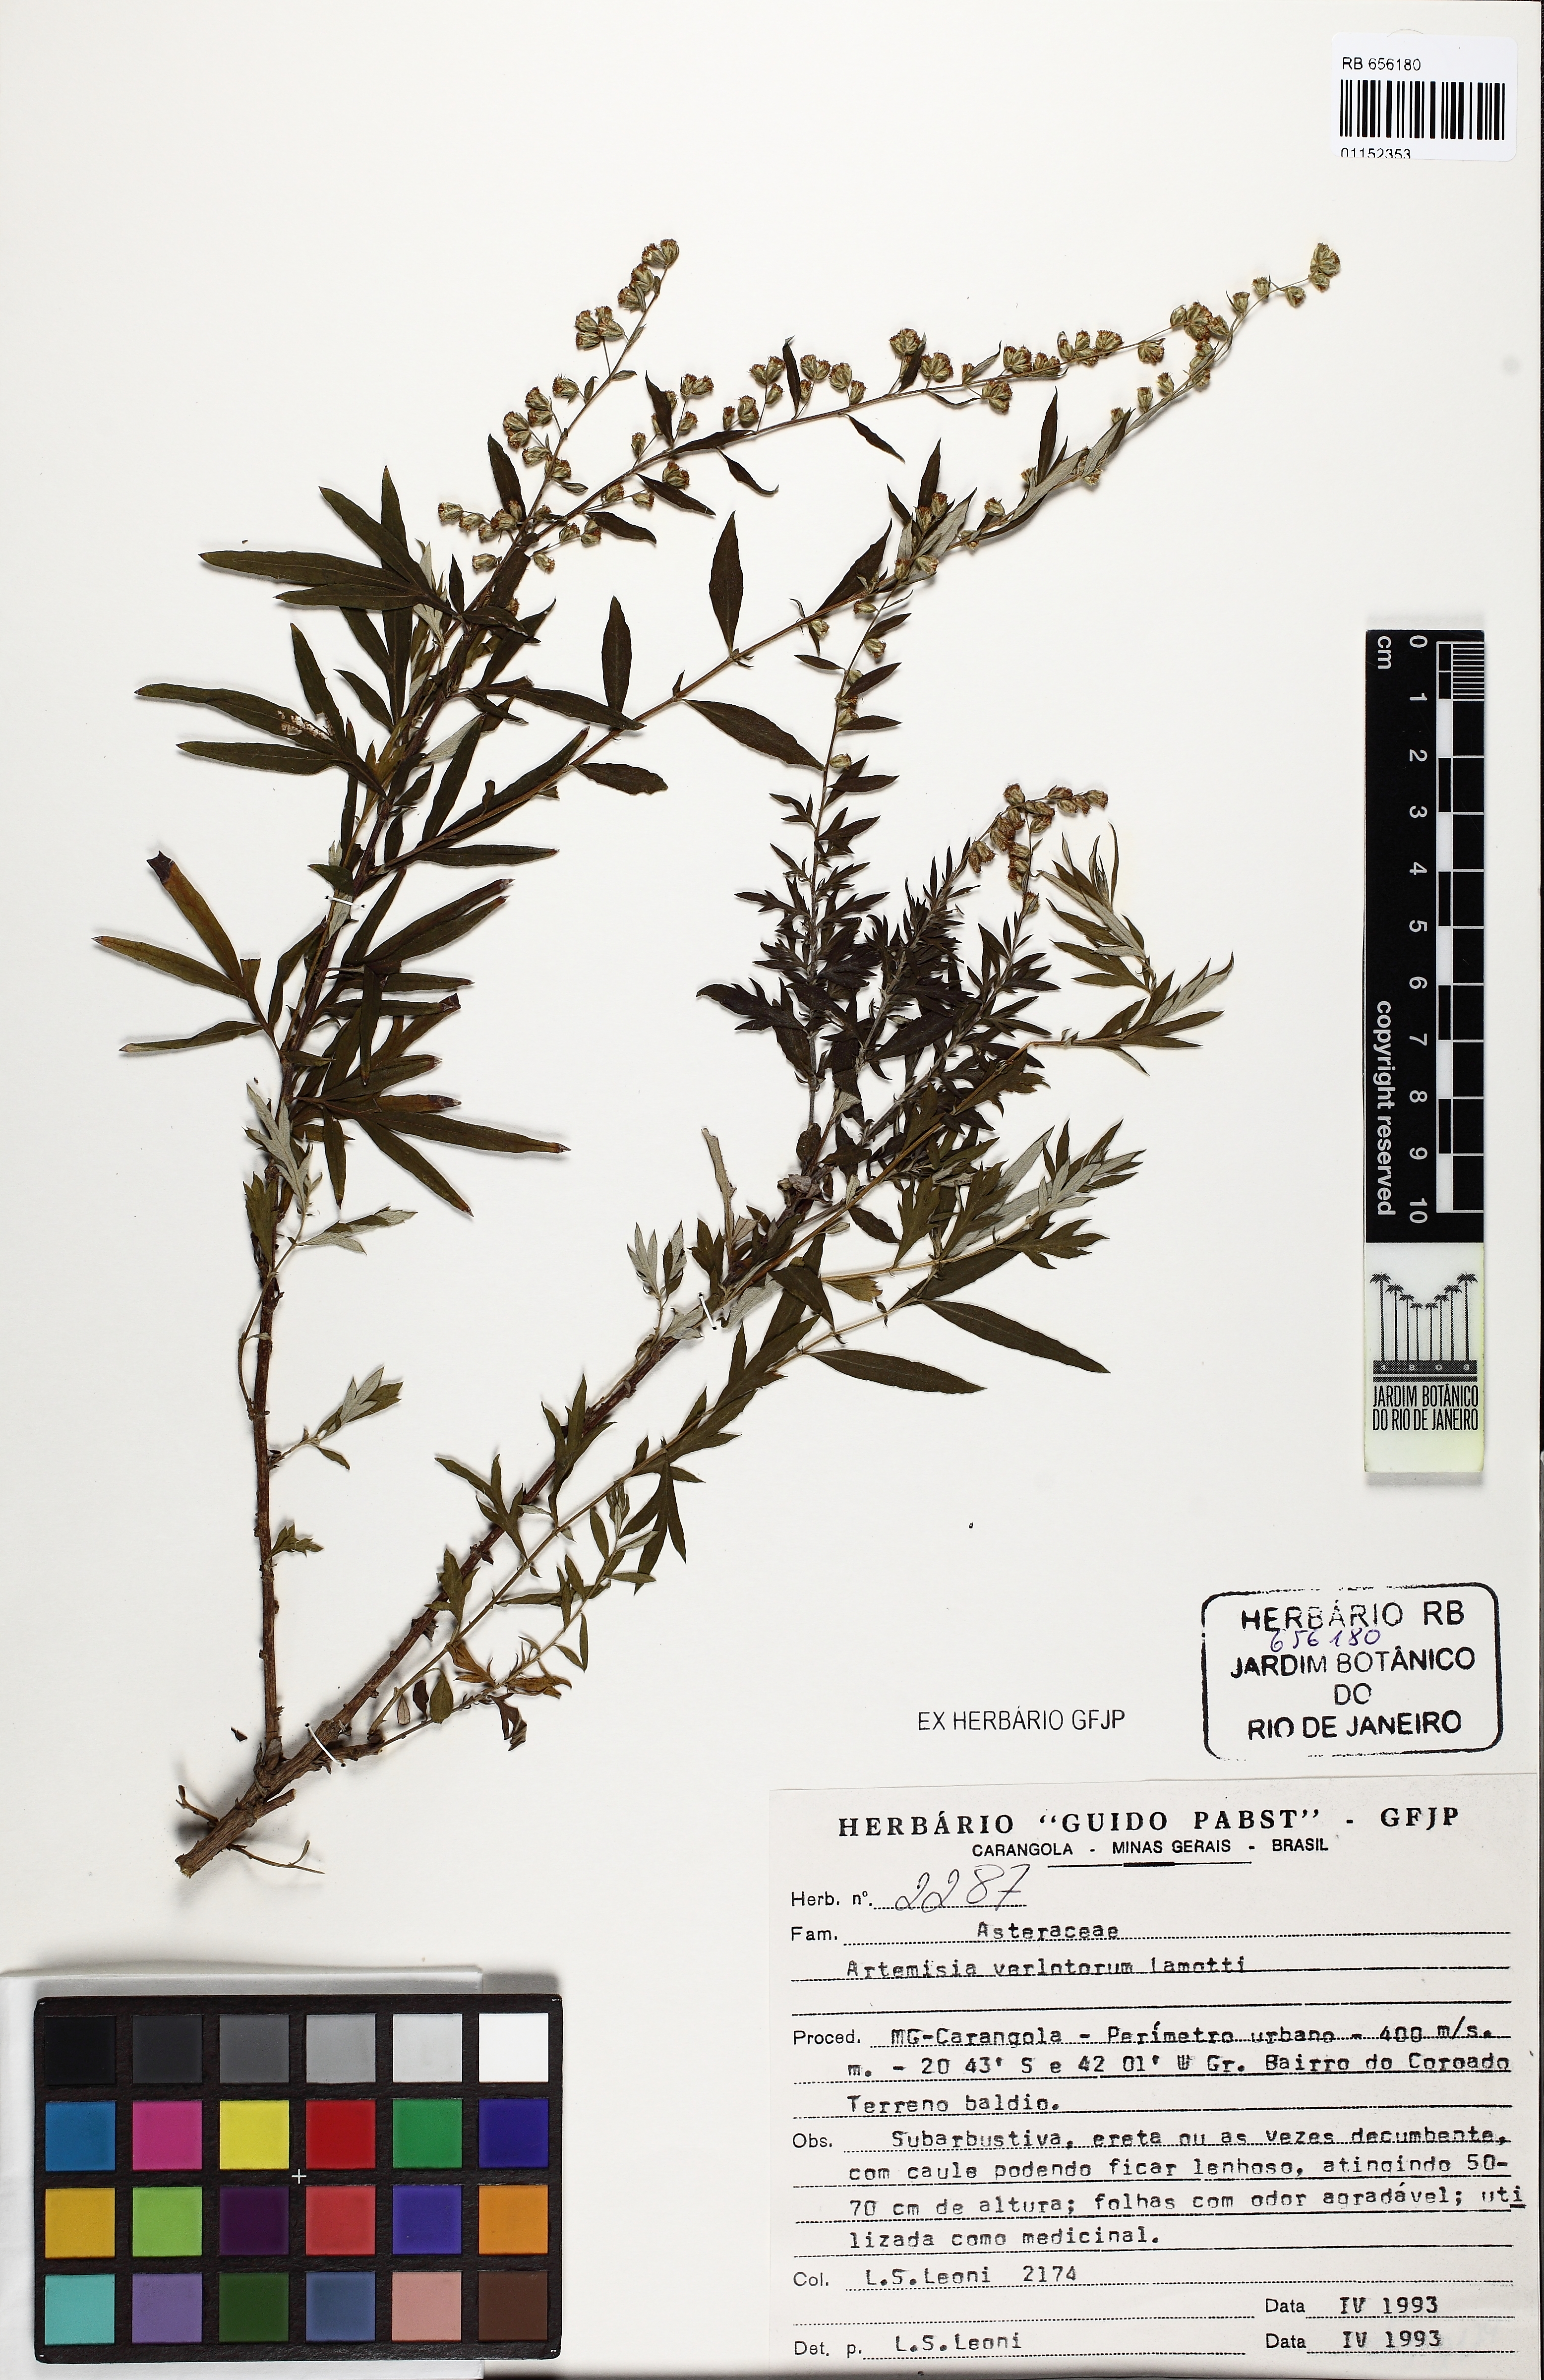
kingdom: Plantae
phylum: Tracheophyta
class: Magnoliopsida
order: Asterales
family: Asteraceae
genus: Artemisia
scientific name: Artemisia verlotiorum
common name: Chinese mugwort
